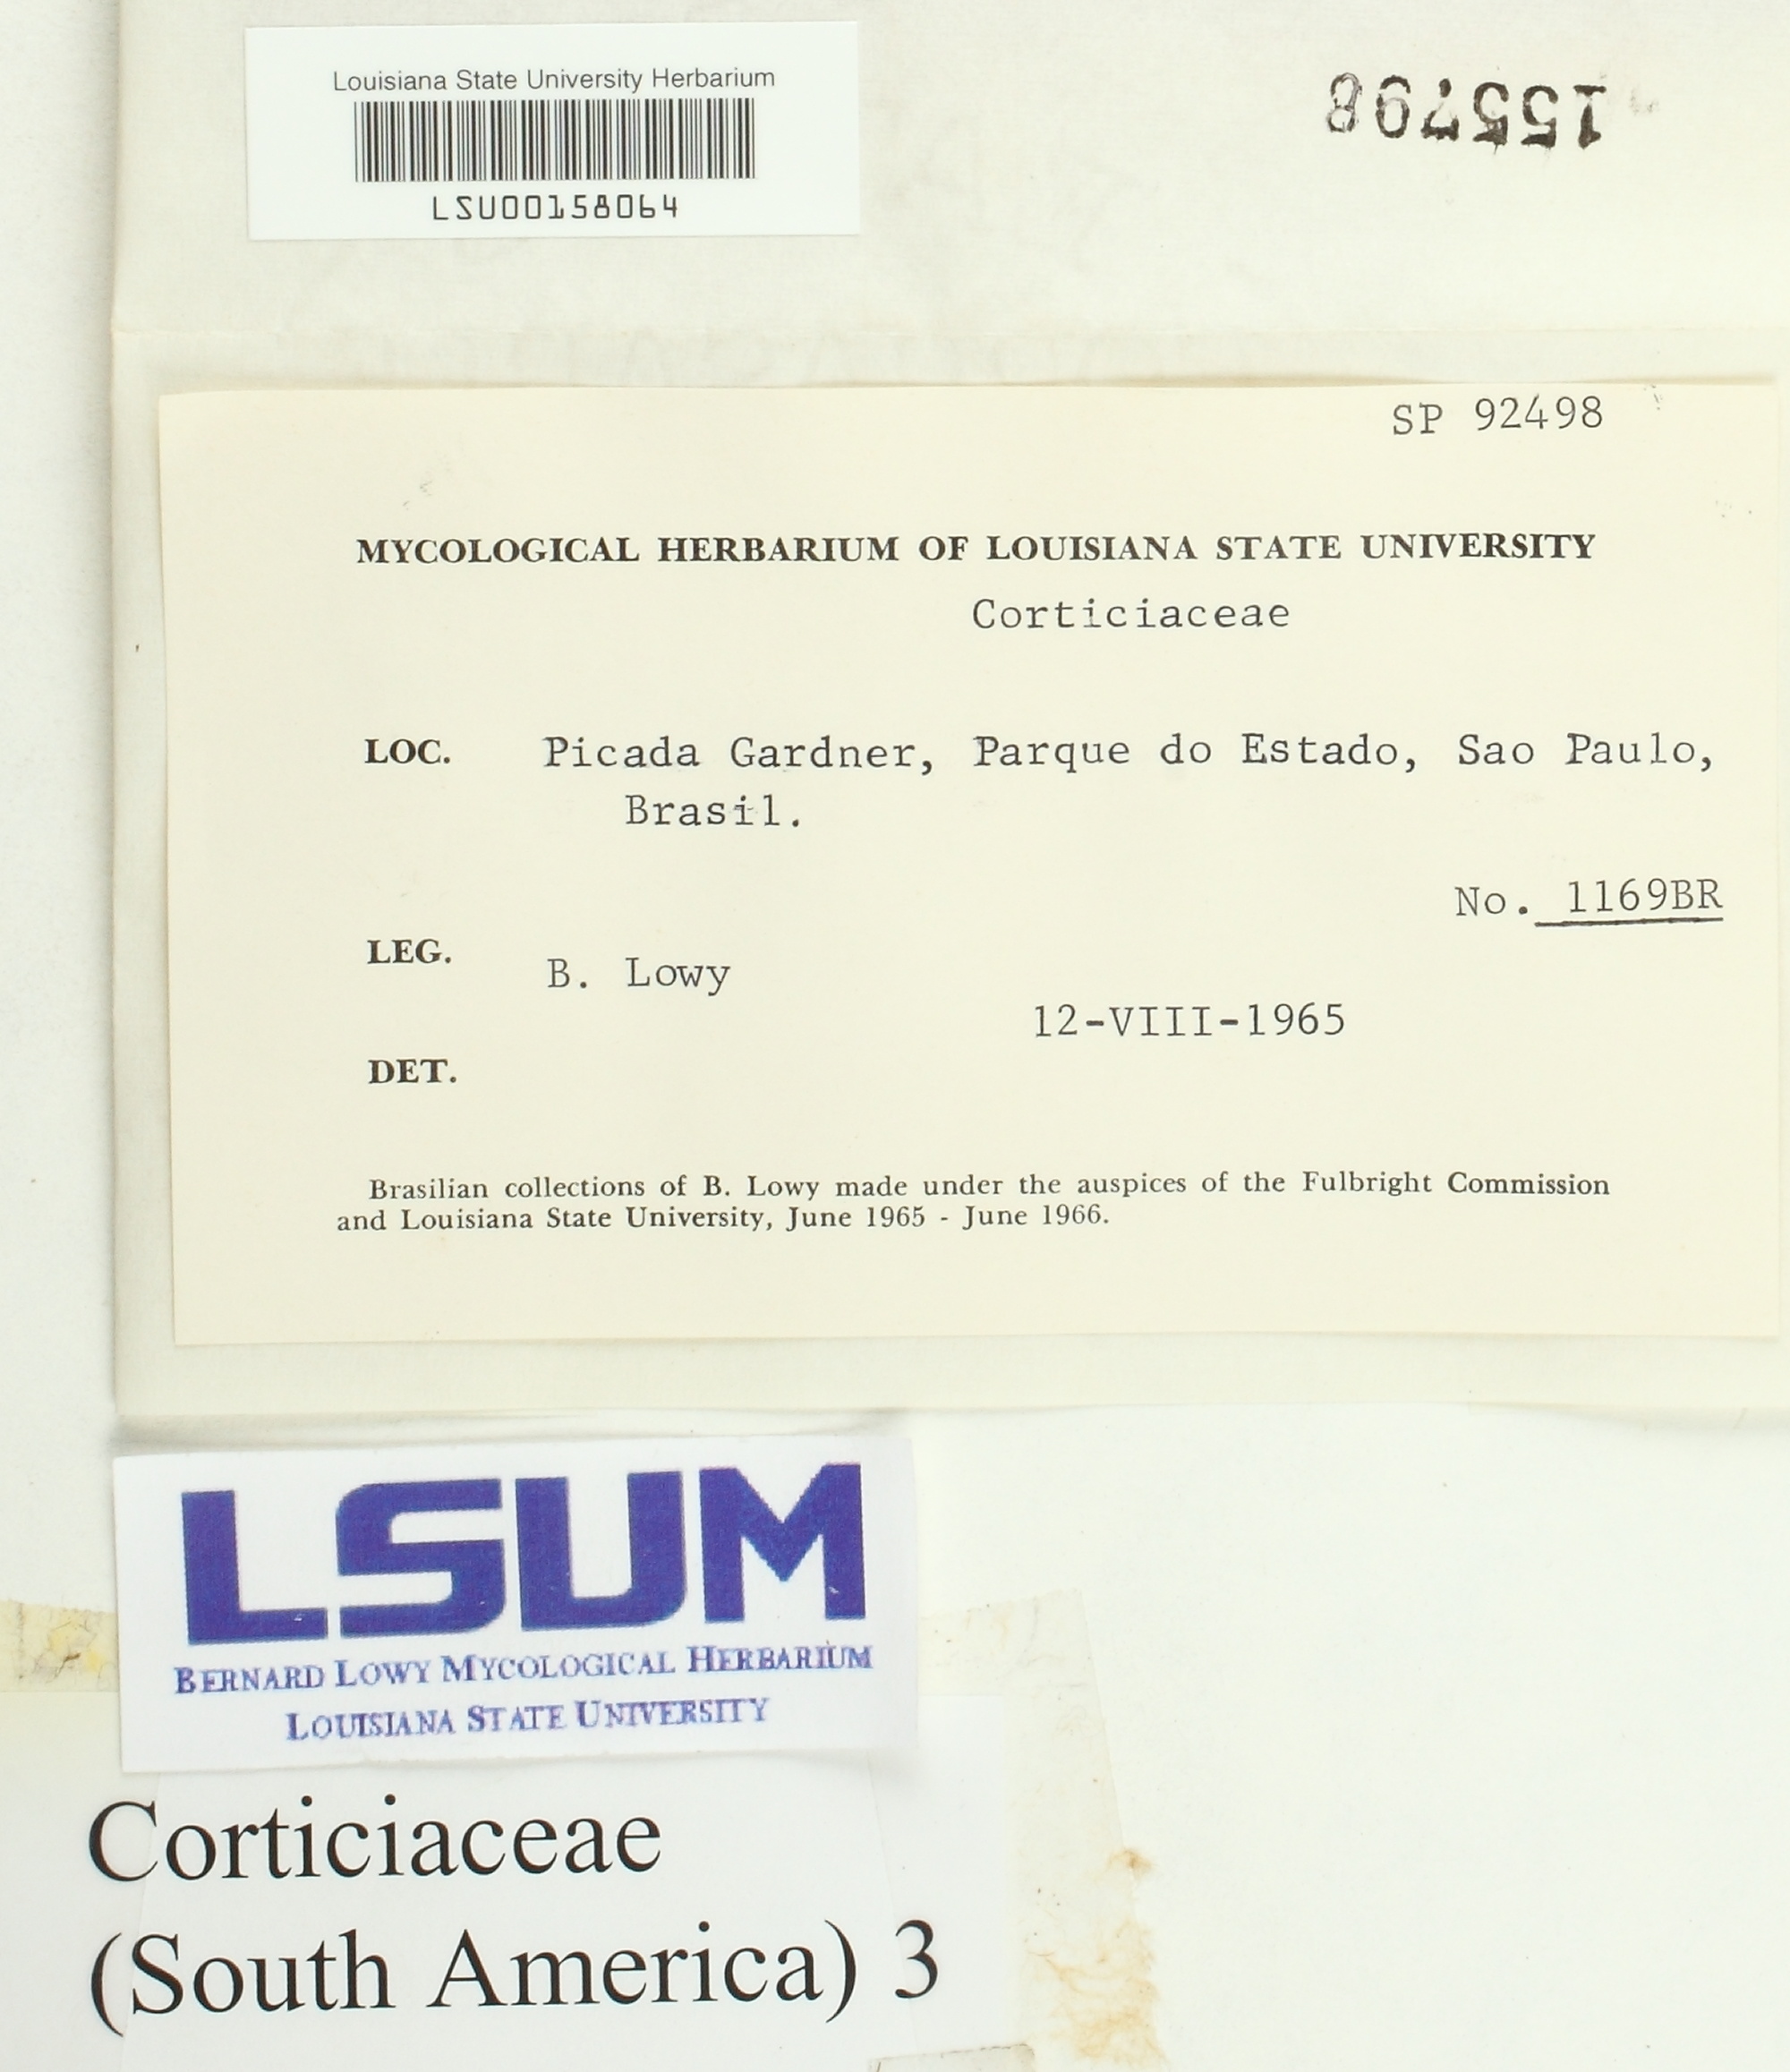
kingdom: Fungi
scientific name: Fungi
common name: Fungi
